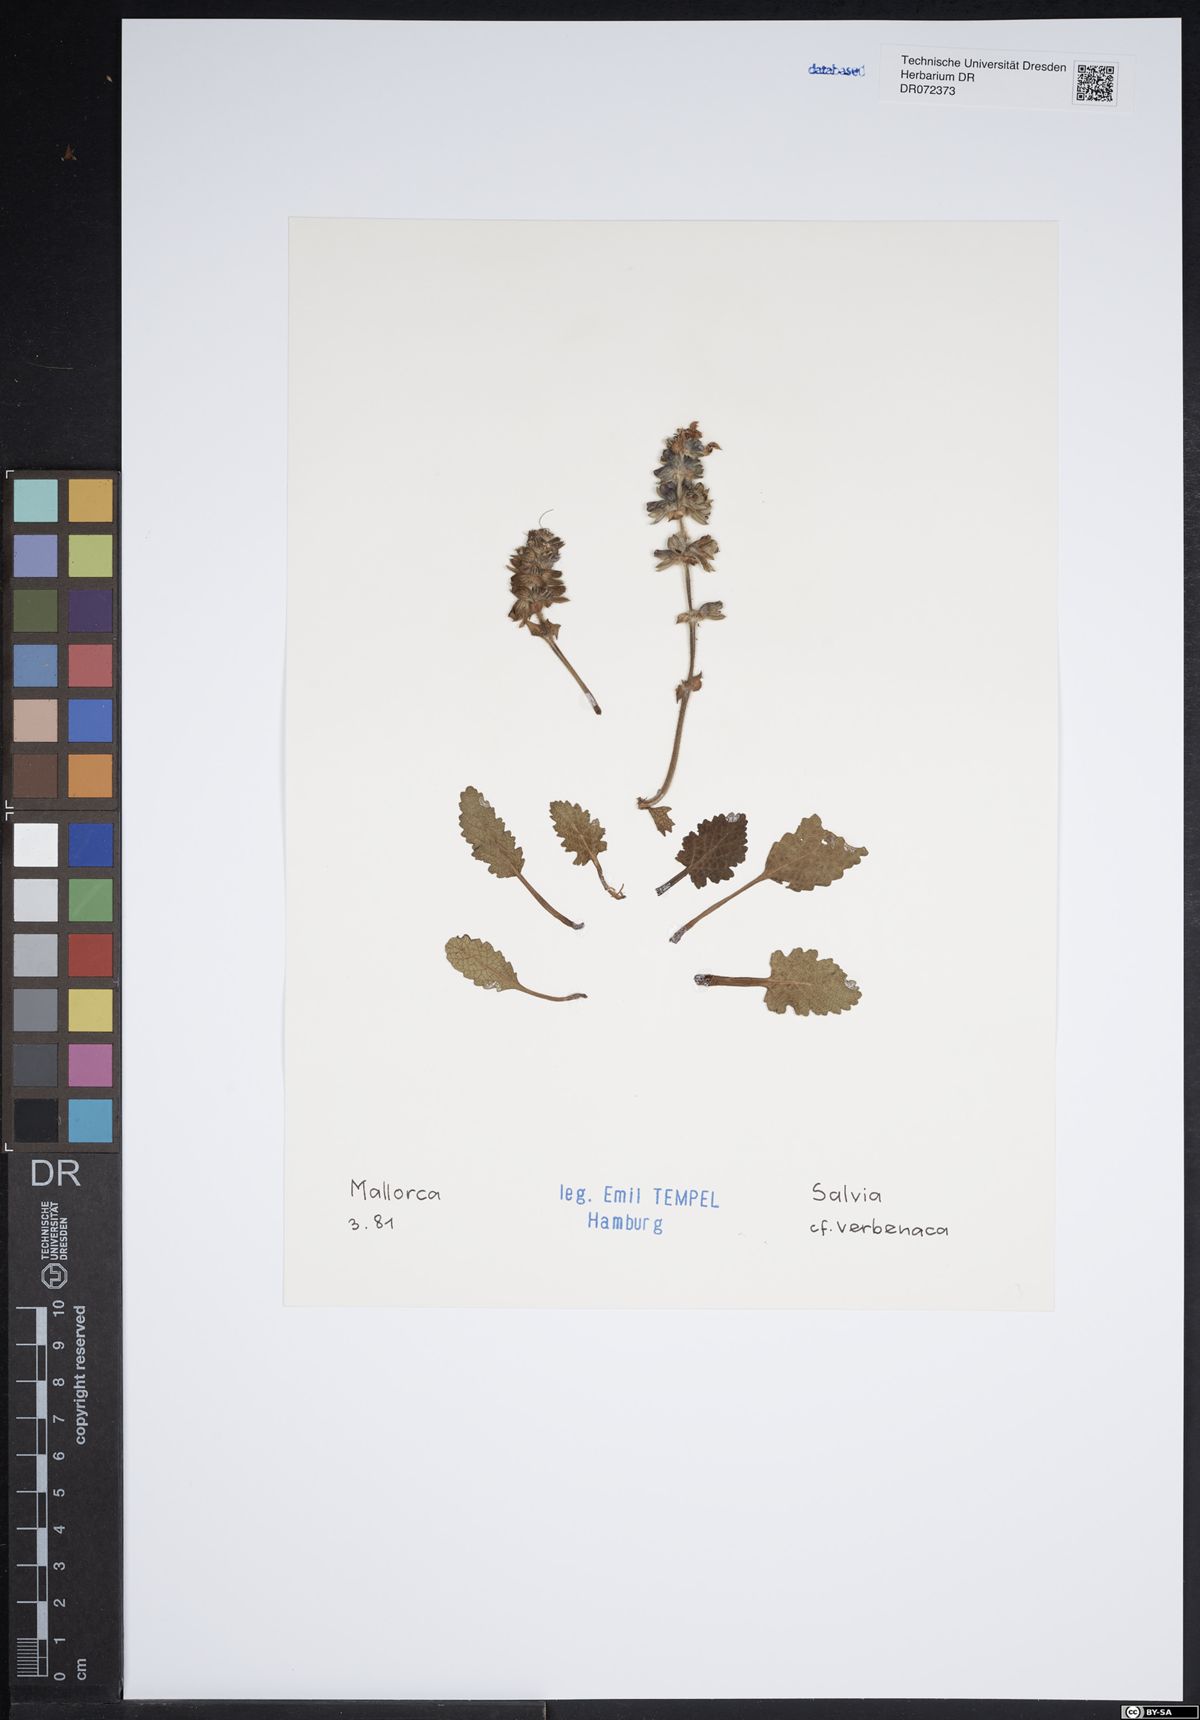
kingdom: Plantae
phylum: Tracheophyta
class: Magnoliopsida
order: Lamiales
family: Lamiaceae
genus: Salvia
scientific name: Salvia verbenaca
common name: Wild clary
